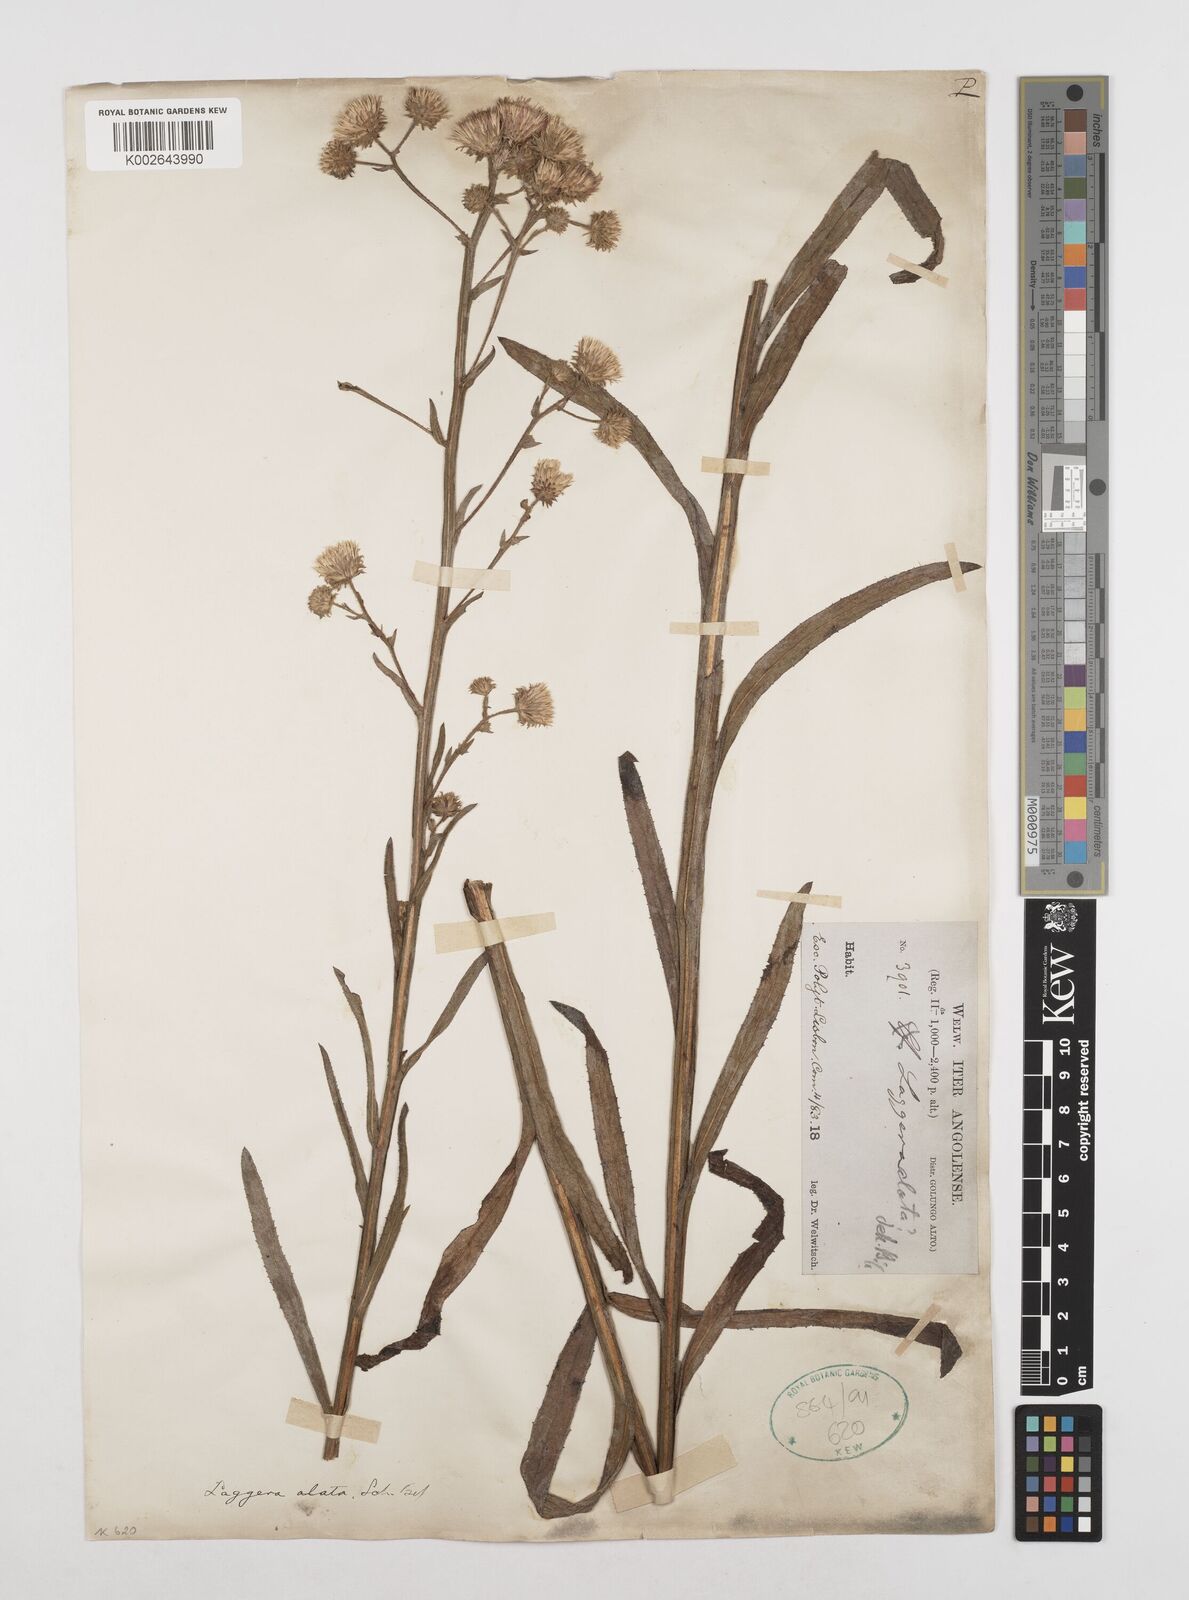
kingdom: Plantae
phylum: Tracheophyta
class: Magnoliopsida
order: Asterales
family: Asteraceae
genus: Laggera
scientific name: Laggera alata
